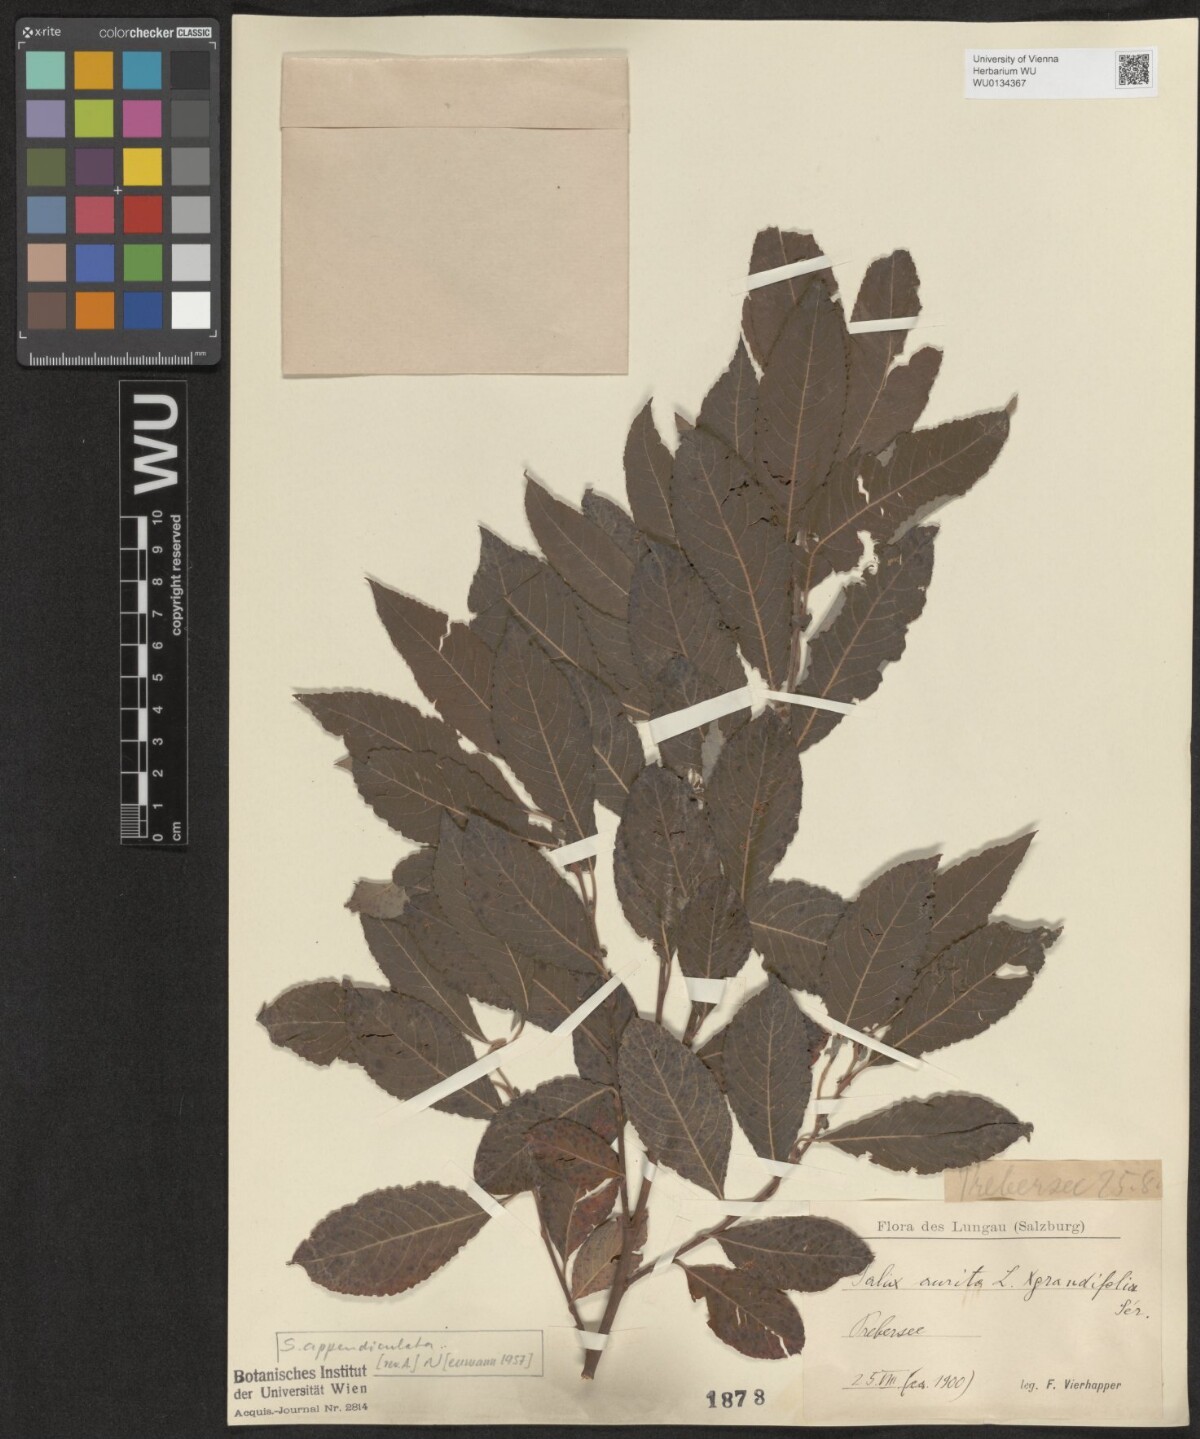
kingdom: Plantae
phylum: Tracheophyta
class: Magnoliopsida
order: Malpighiales
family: Salicaceae
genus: Salix
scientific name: Salix appendiculata
